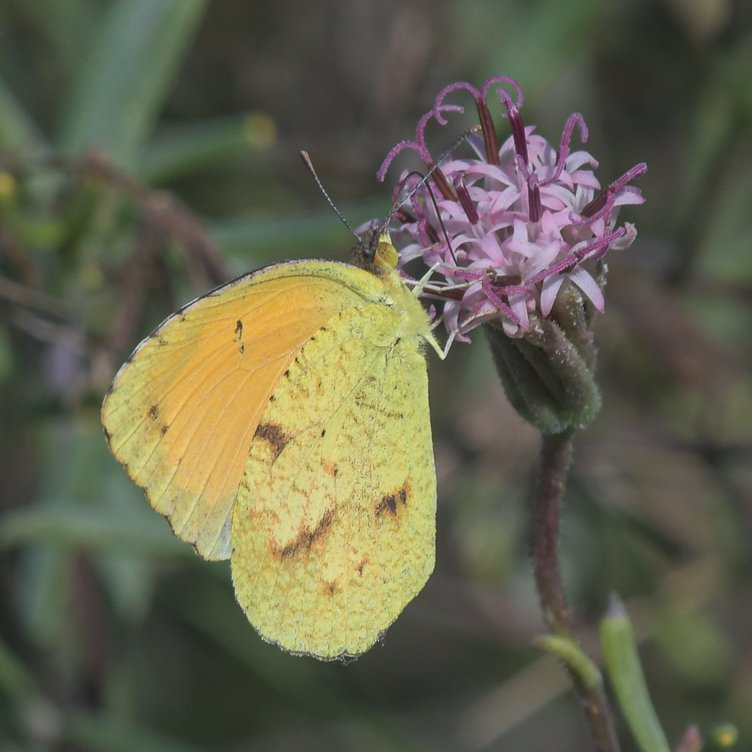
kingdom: Animalia
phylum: Arthropoda
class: Insecta
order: Lepidoptera
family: Pieridae
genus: Abaeis
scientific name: Abaeis nicippe
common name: Sleepy Orange
